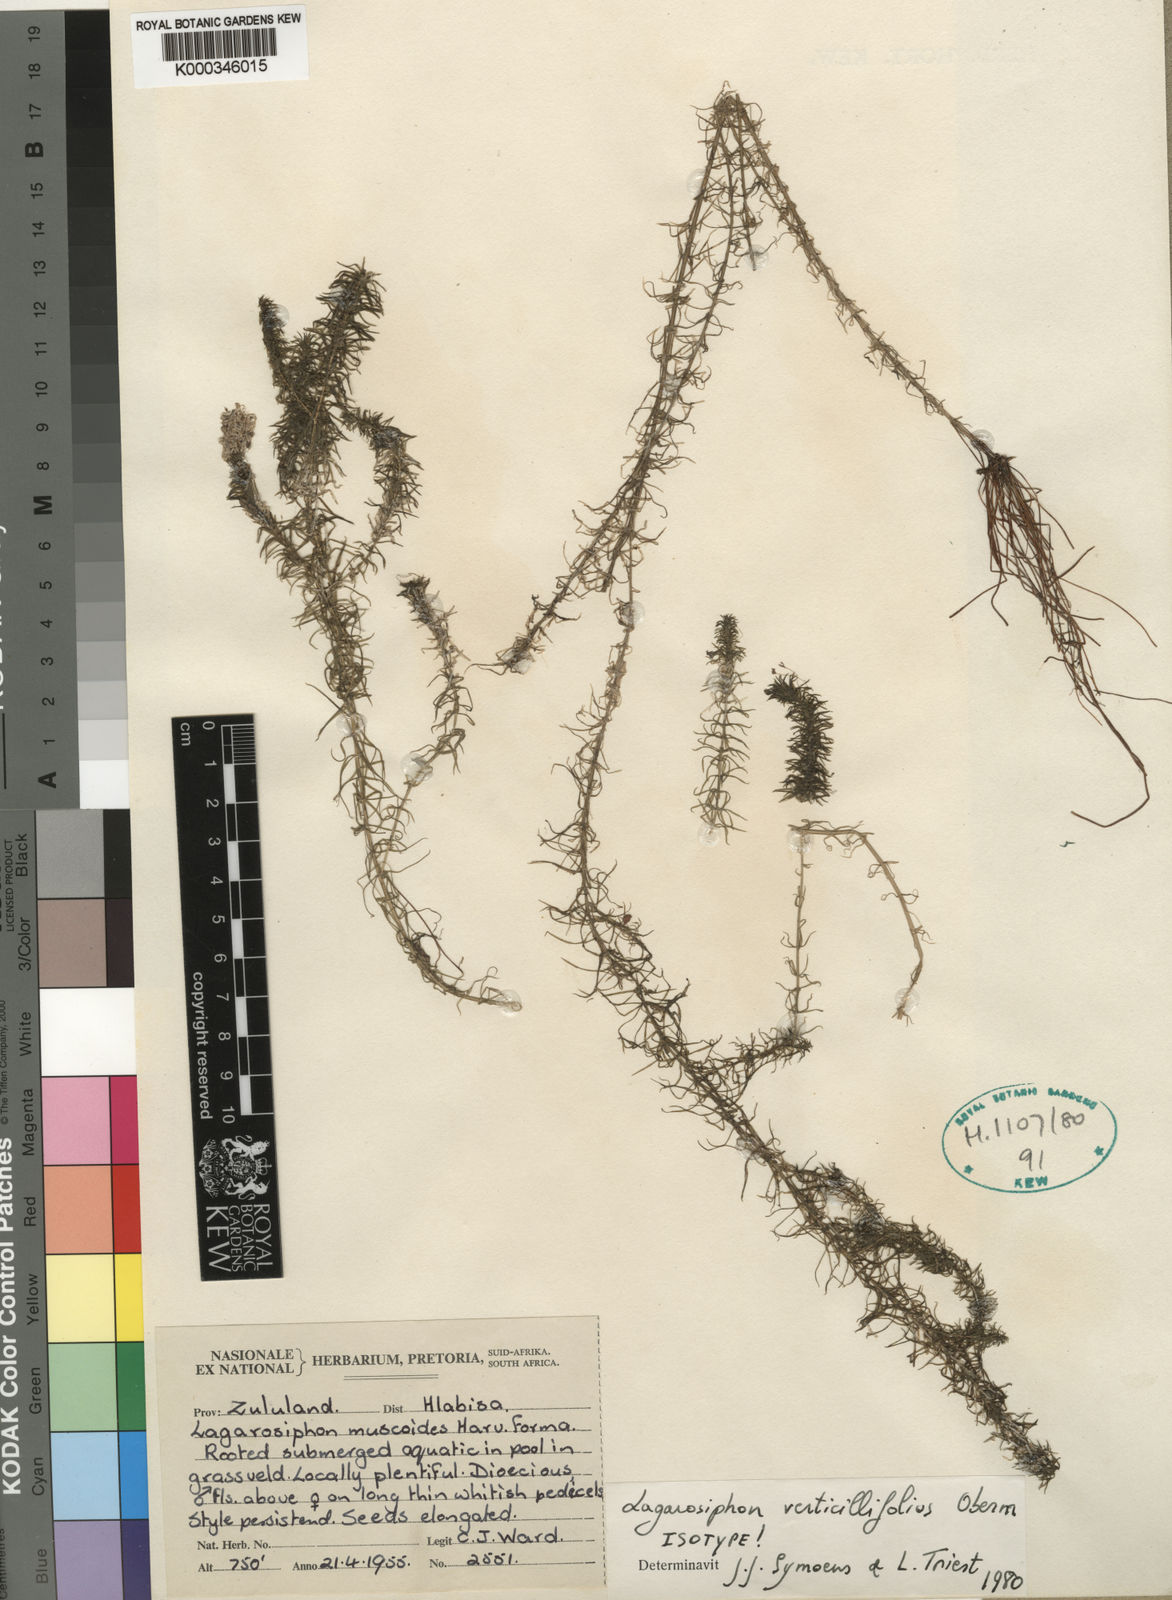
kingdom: Plantae
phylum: Tracheophyta
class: Liliopsida
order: Alismatales
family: Hydrocharitaceae
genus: Lagarosiphon
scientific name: Lagarosiphon verticillifolius
